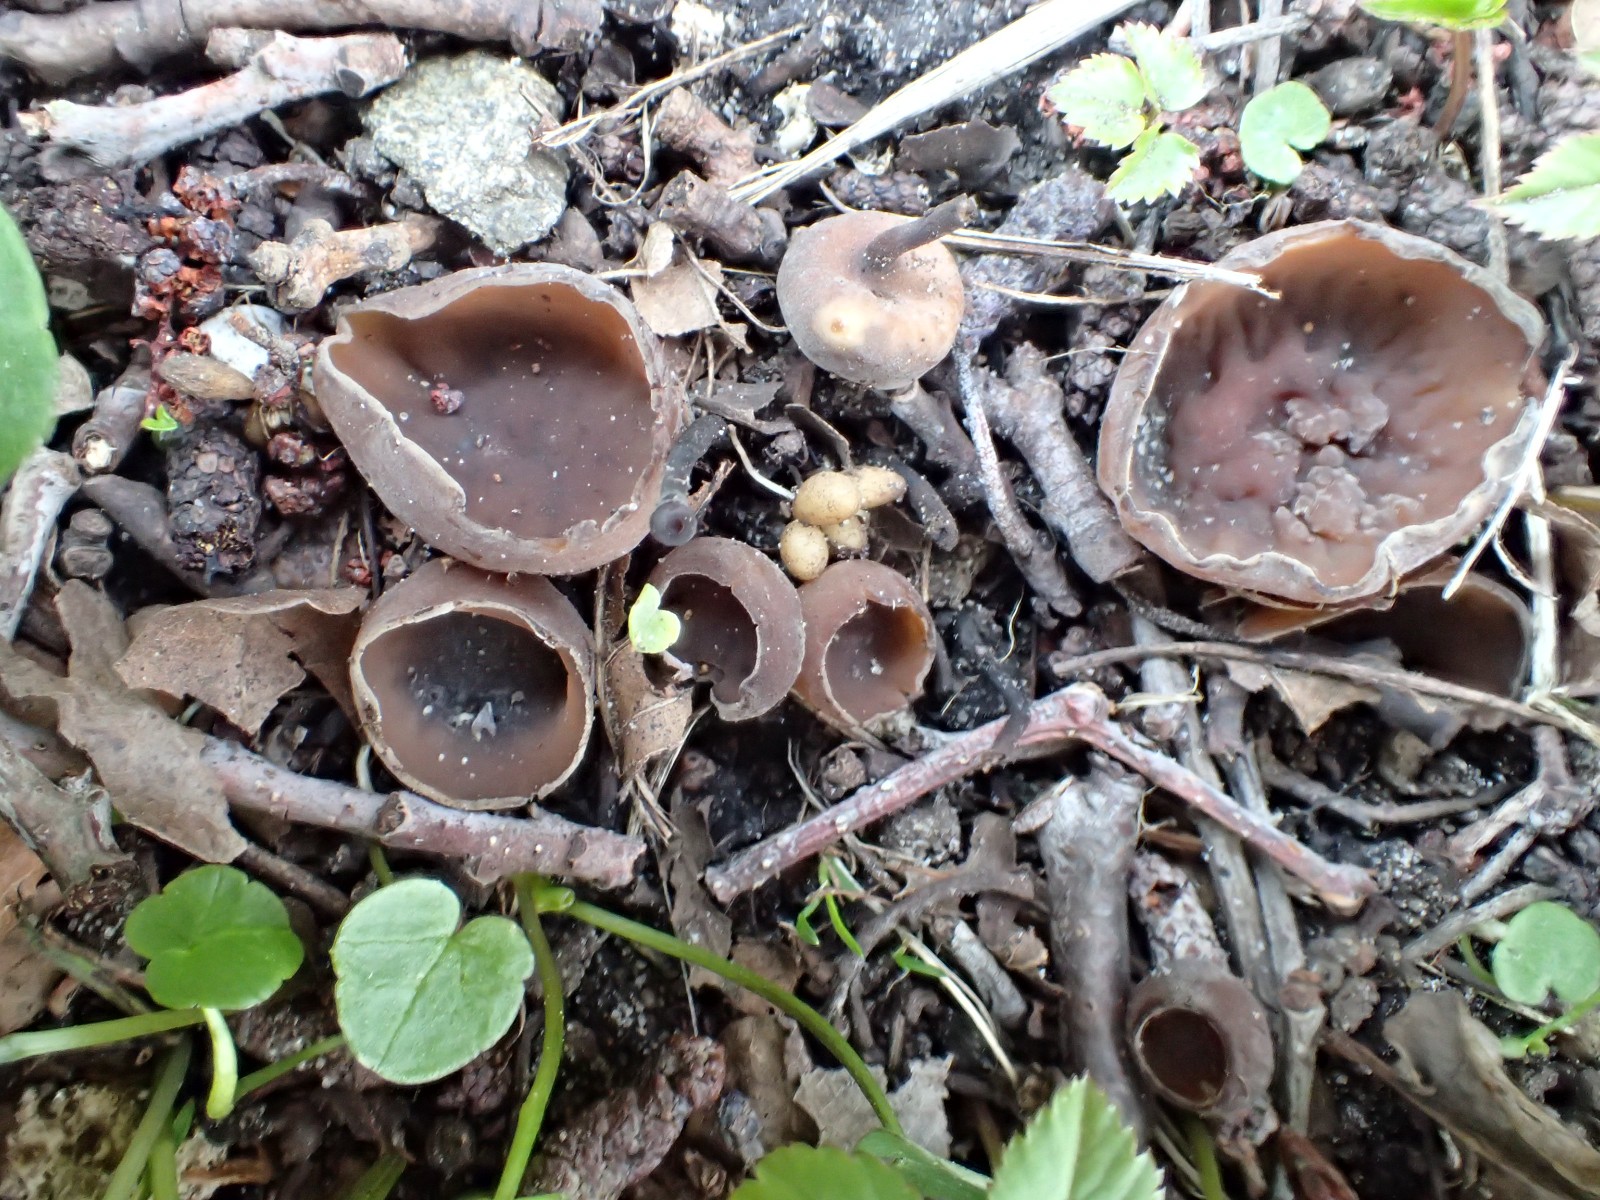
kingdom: Fungi
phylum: Ascomycota
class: Leotiomycetes
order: Helotiales
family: Sclerotiniaceae
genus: Dumontinia
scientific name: Dumontinia tuberosa
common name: anemone-knoldskive
